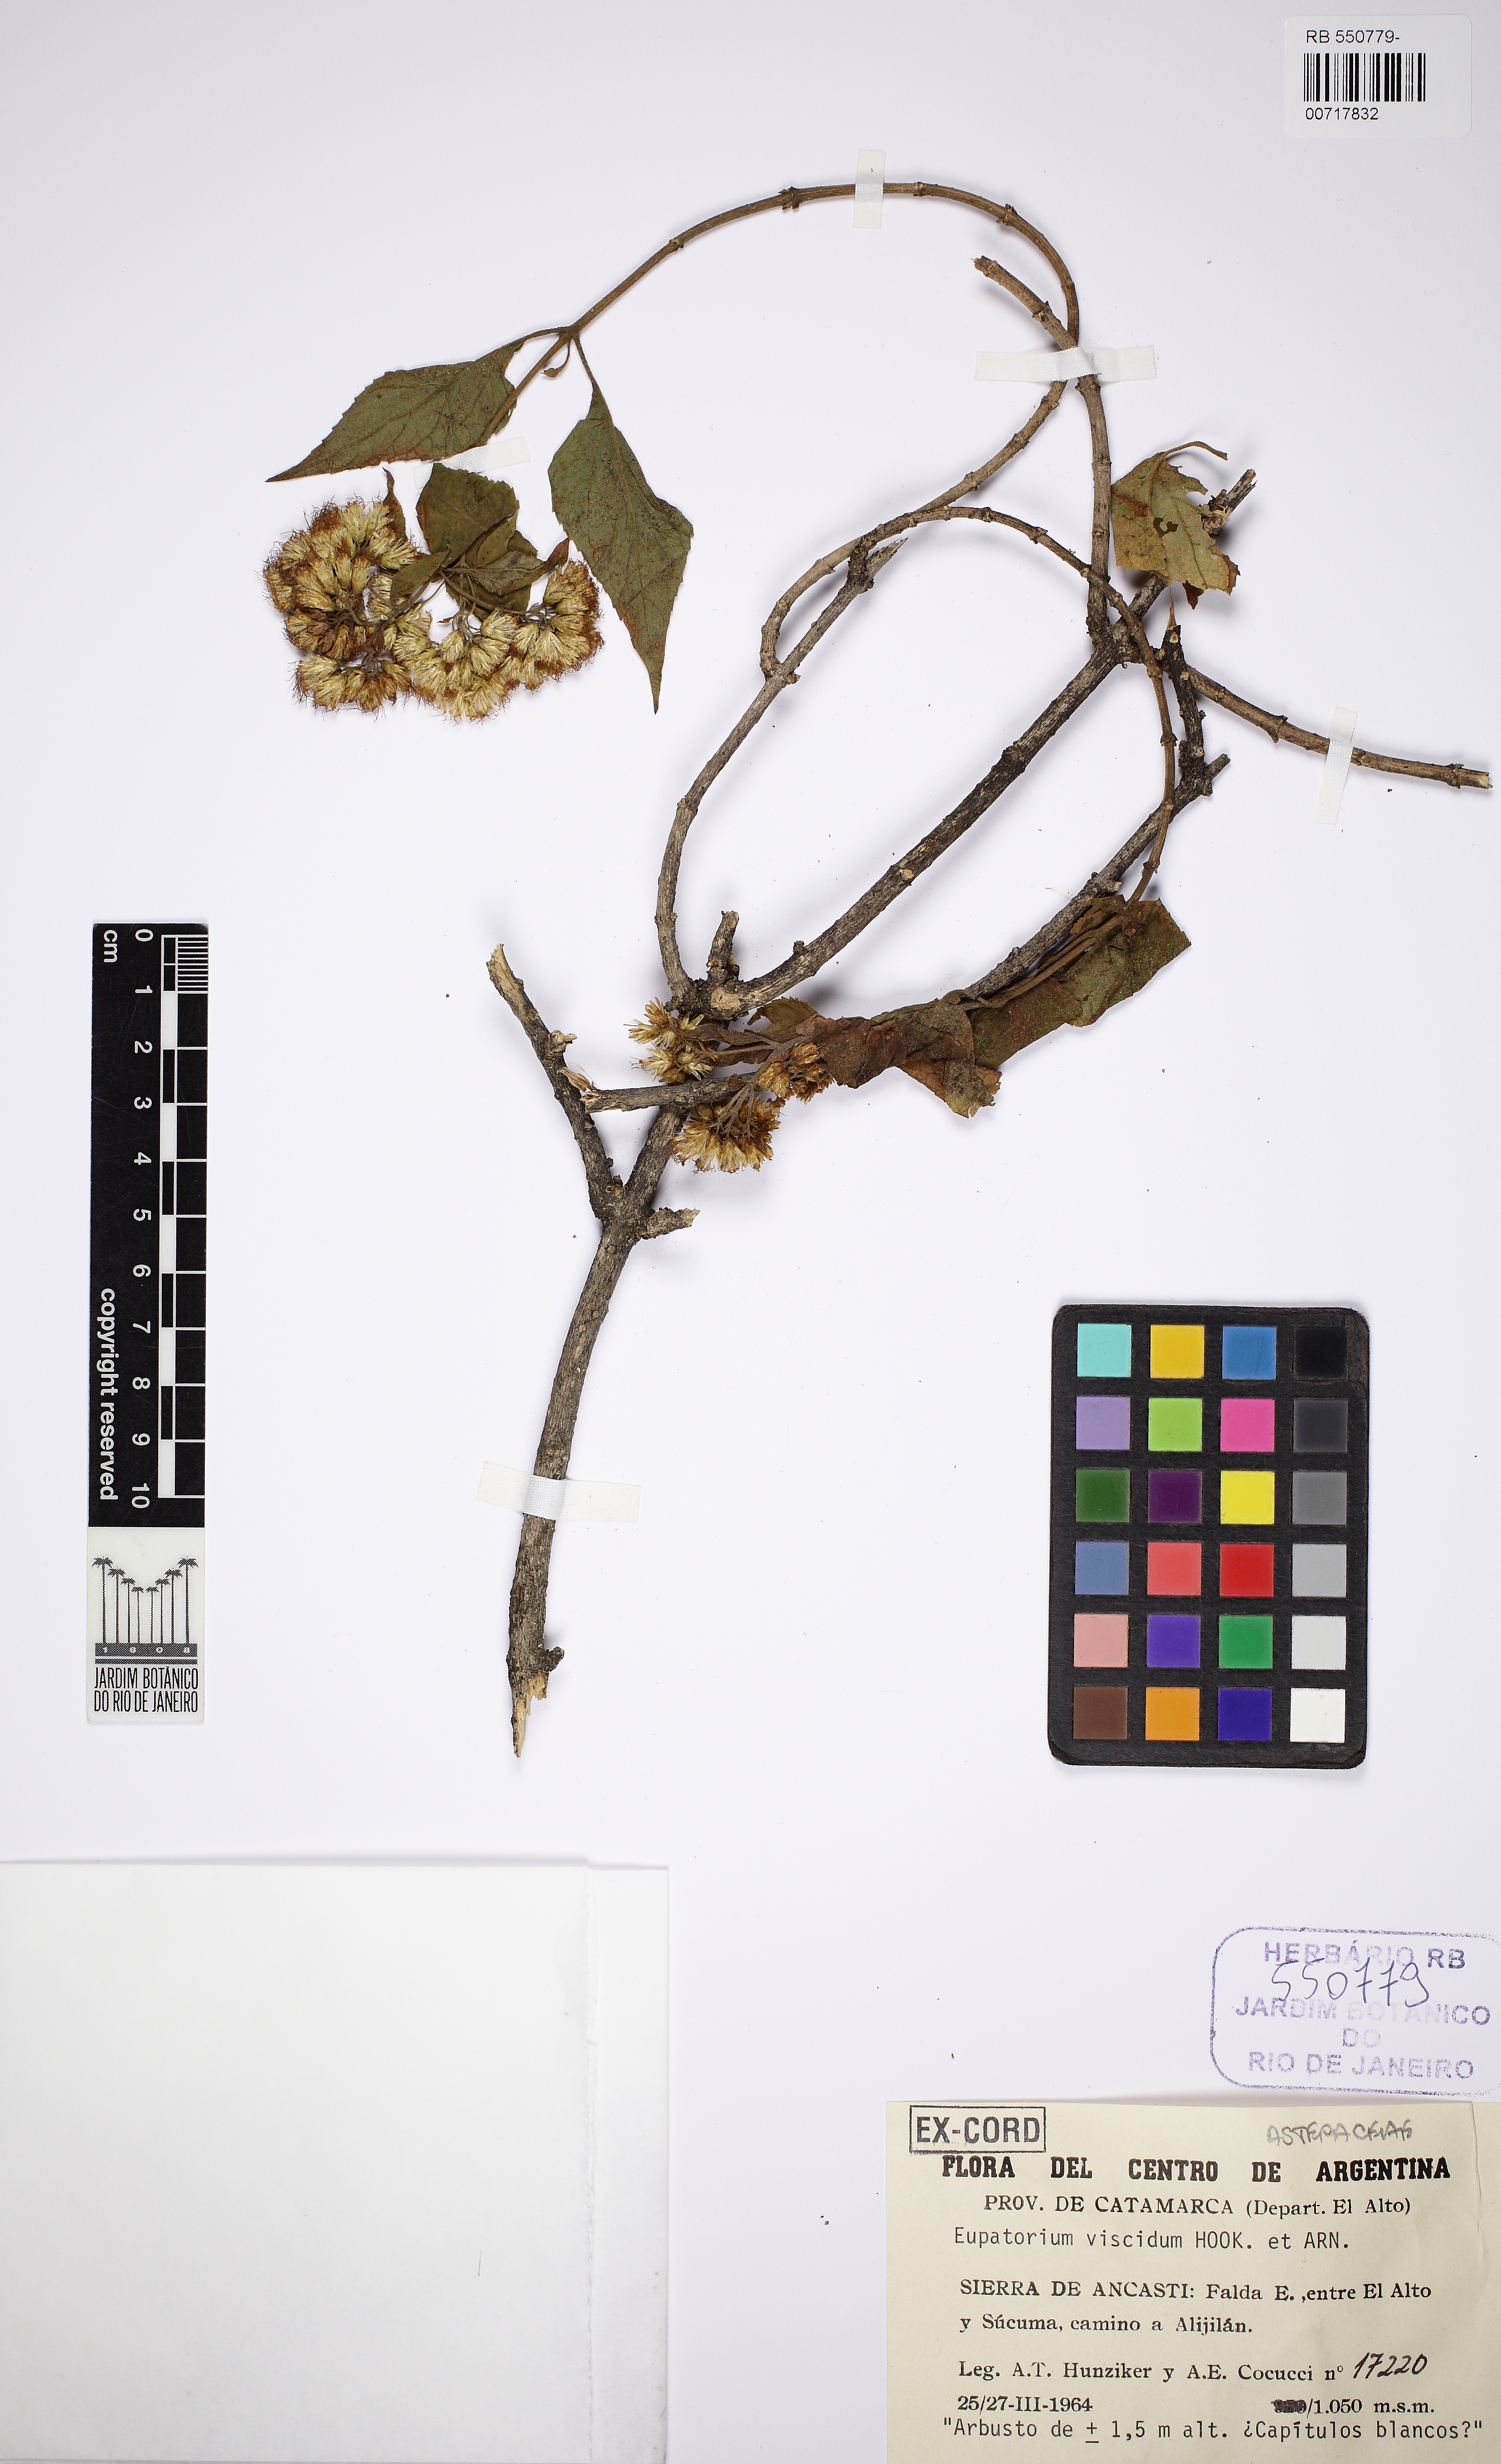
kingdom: Plantae
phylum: Tracheophyta
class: Magnoliopsida
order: Asterales
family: Asteraceae
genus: Lorentzianthus
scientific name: Lorentzianthus viscidus
